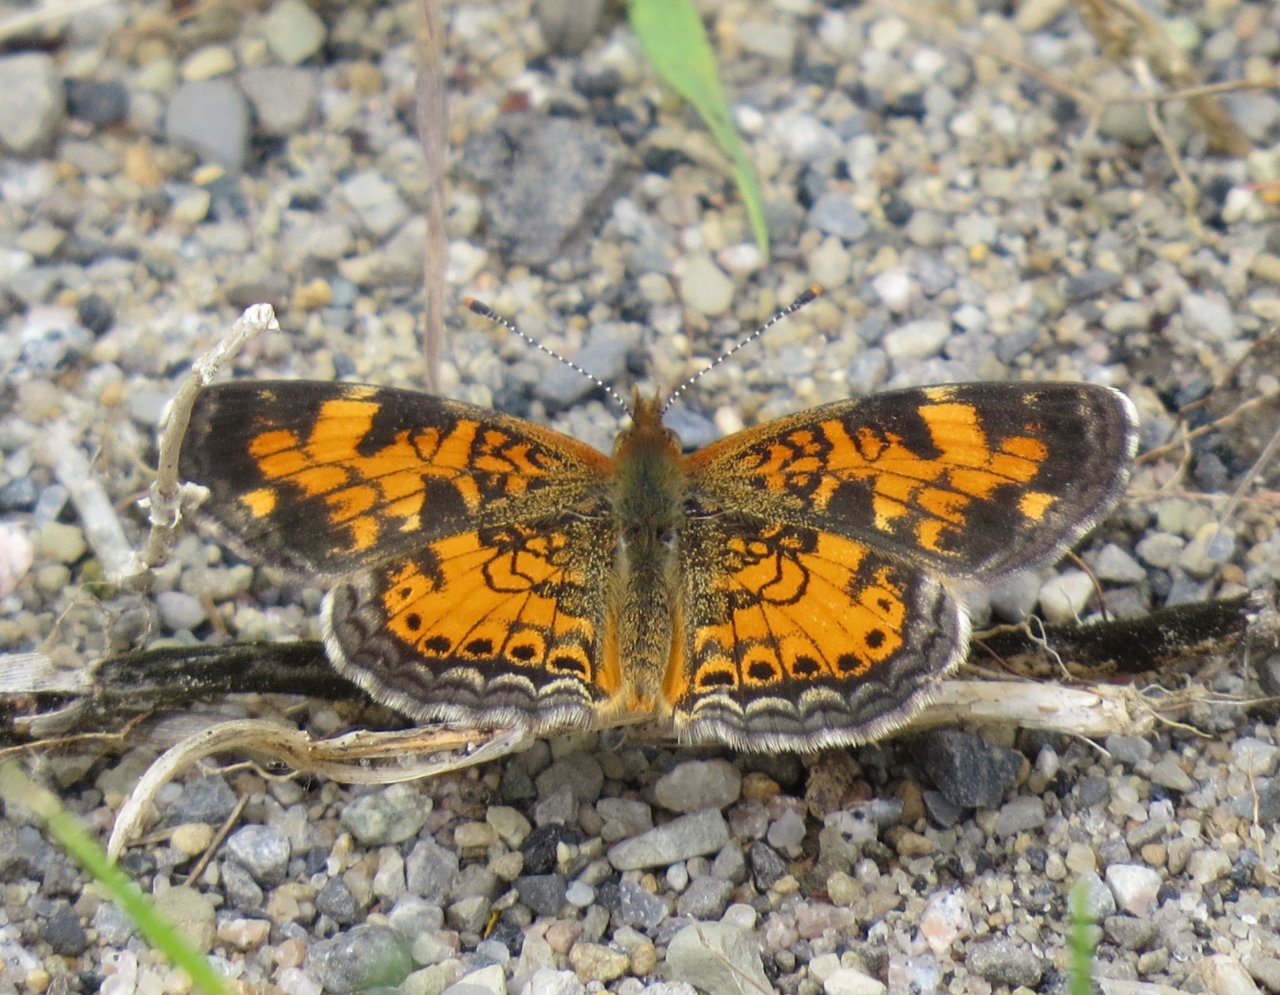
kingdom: Animalia
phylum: Arthropoda
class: Insecta
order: Lepidoptera
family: Nymphalidae
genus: Phyciodes
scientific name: Phyciodes tharos
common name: Northern Crescent
